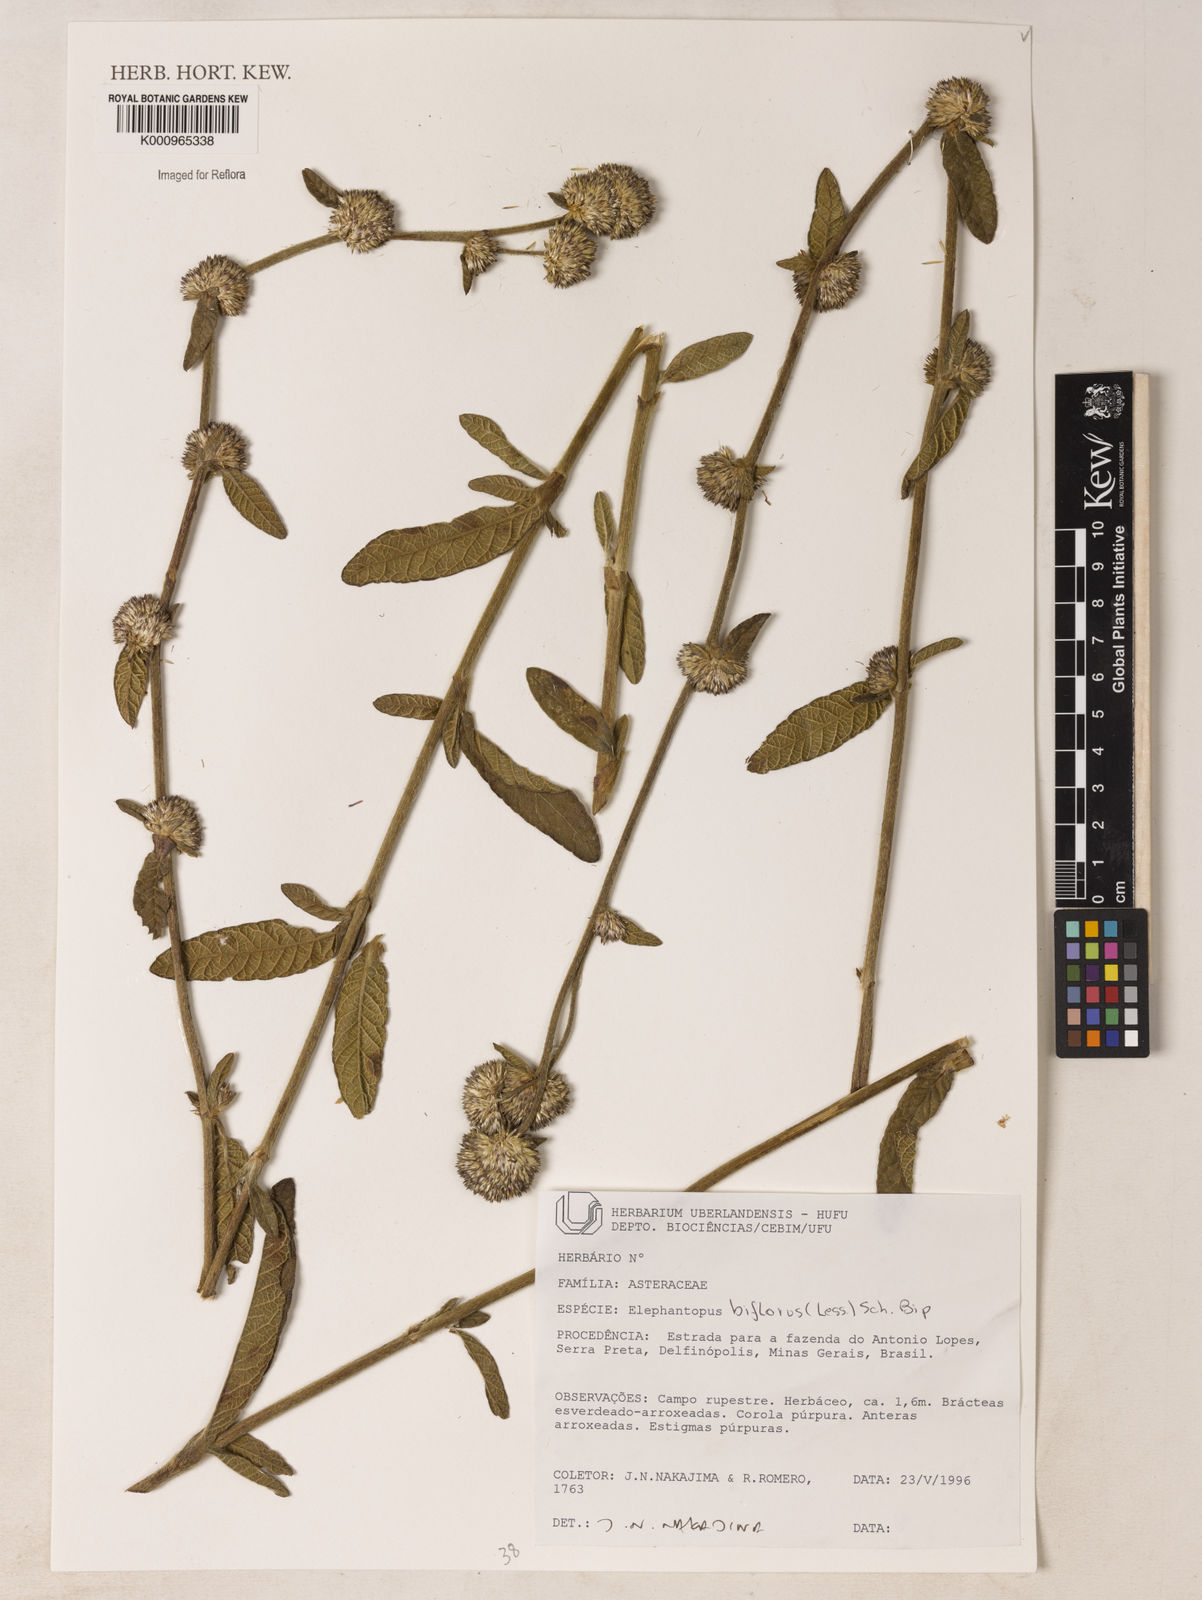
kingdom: Plantae
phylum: Tracheophyta
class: Magnoliopsida
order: Asterales
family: Asteraceae
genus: Elephantopus
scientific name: Elephantopus biflorus
